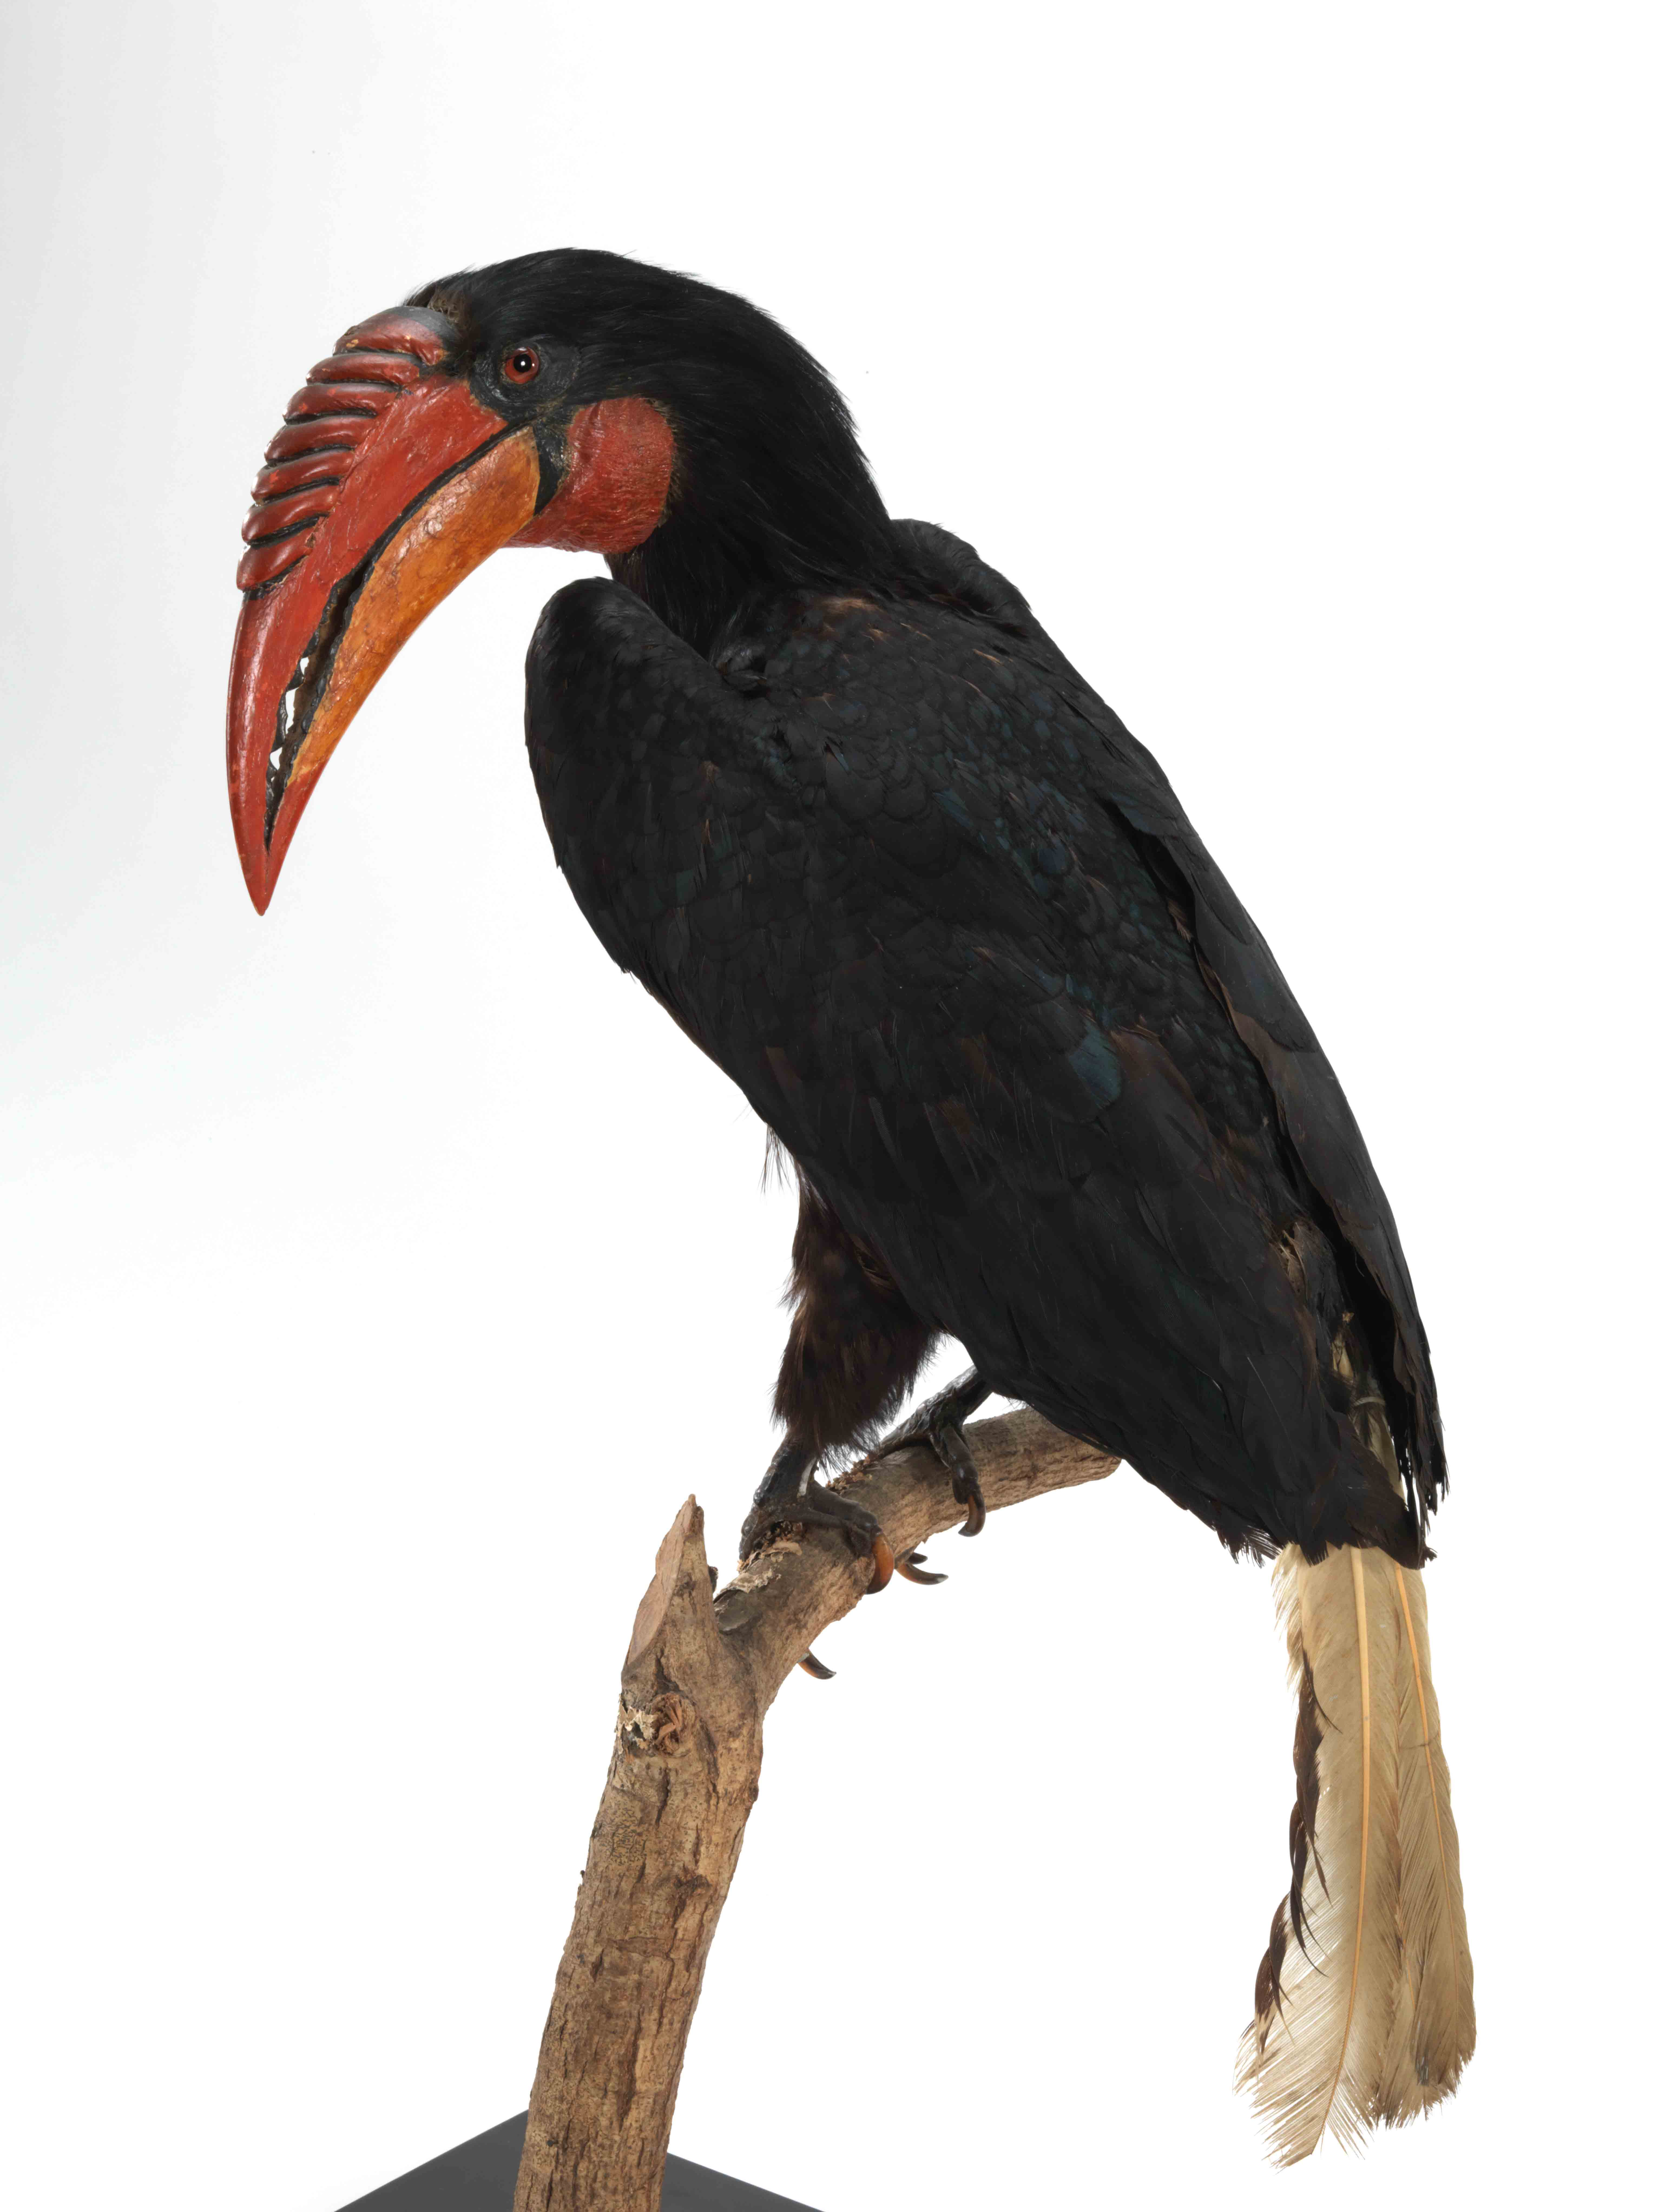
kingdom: Animalia
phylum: Chordata
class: Aves
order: Bucerotiformes
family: Bucerotidae
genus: Rhyticeros
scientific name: Rhyticeros plicatus
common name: Blyth's hornbill
